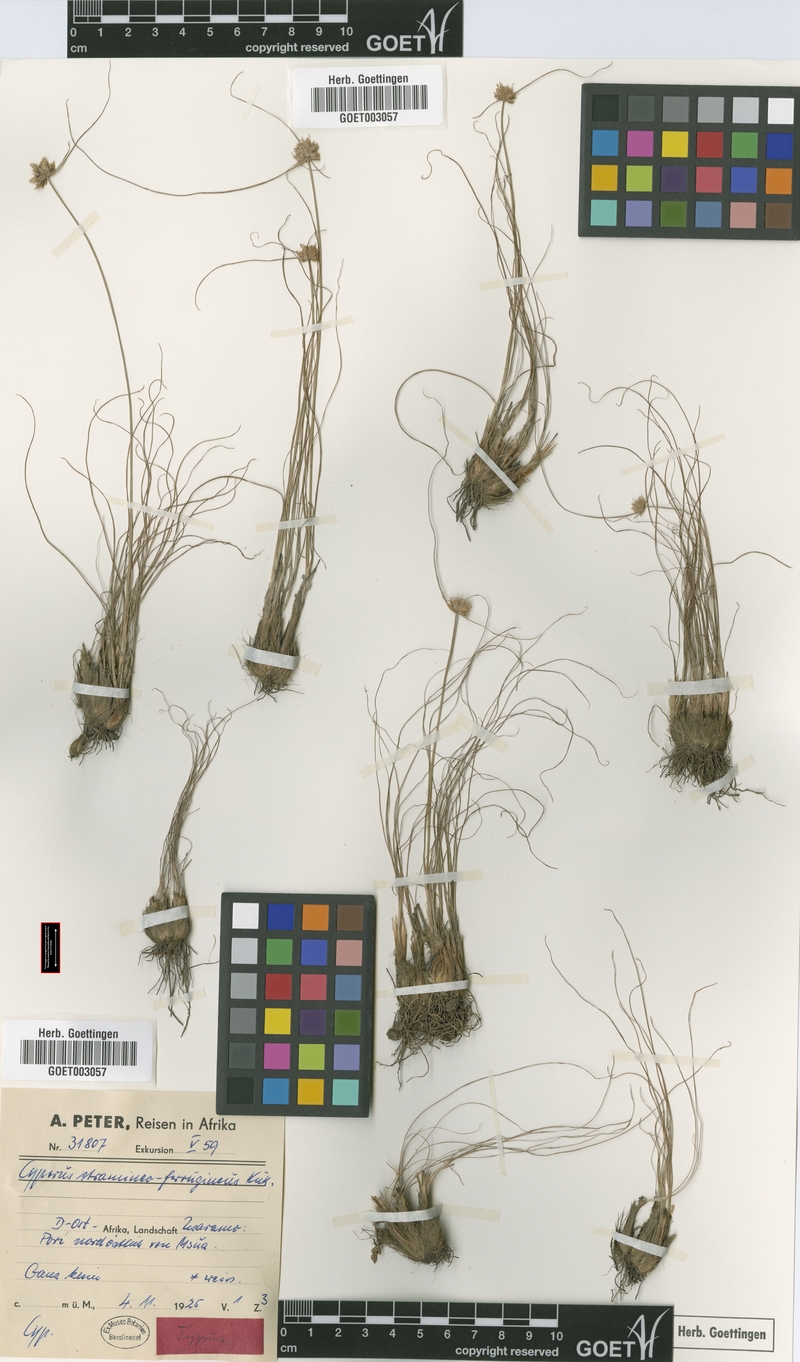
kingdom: Plantae
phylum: Tracheophyta
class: Liliopsida
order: Poales
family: Cyperaceae
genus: Cyperus
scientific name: Cyperus stramineoferrugineus
